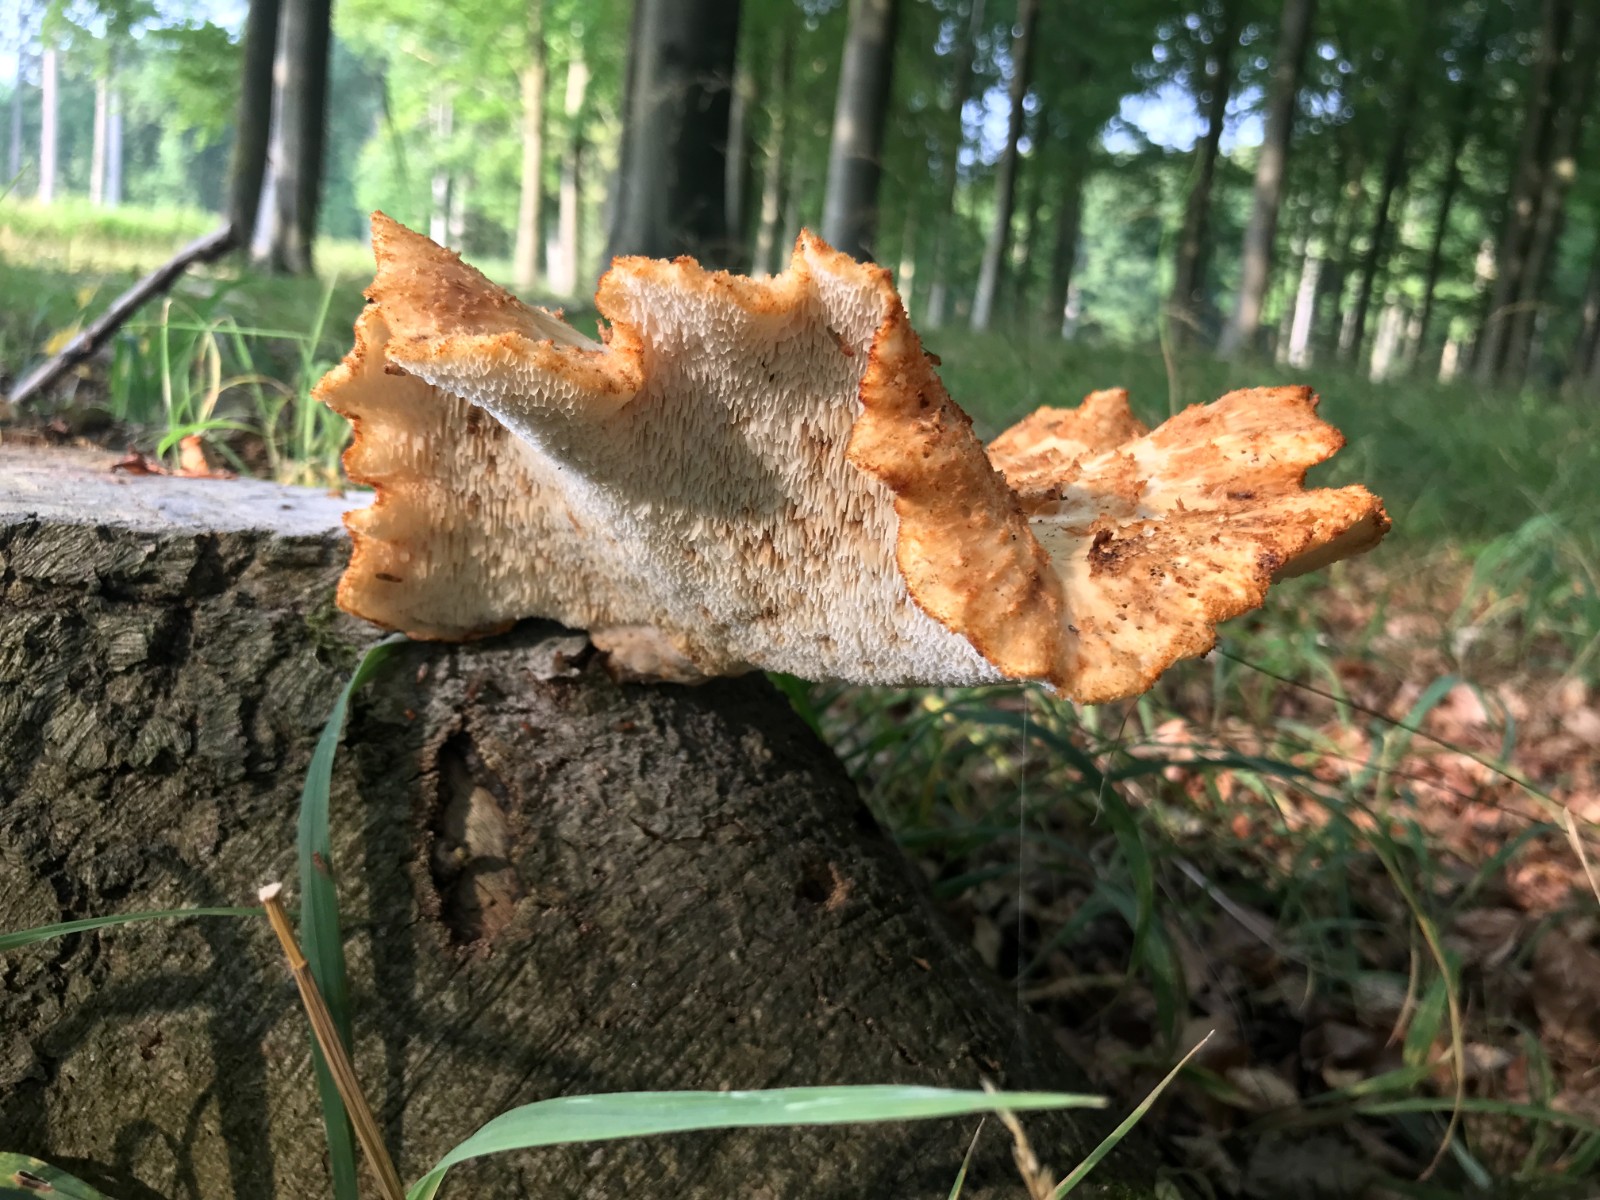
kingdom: Fungi
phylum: Basidiomycota
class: Agaricomycetes
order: Polyporales
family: Polyporaceae
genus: Cerioporus
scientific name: Cerioporus squamosus
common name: skællet stilkporesvamp
